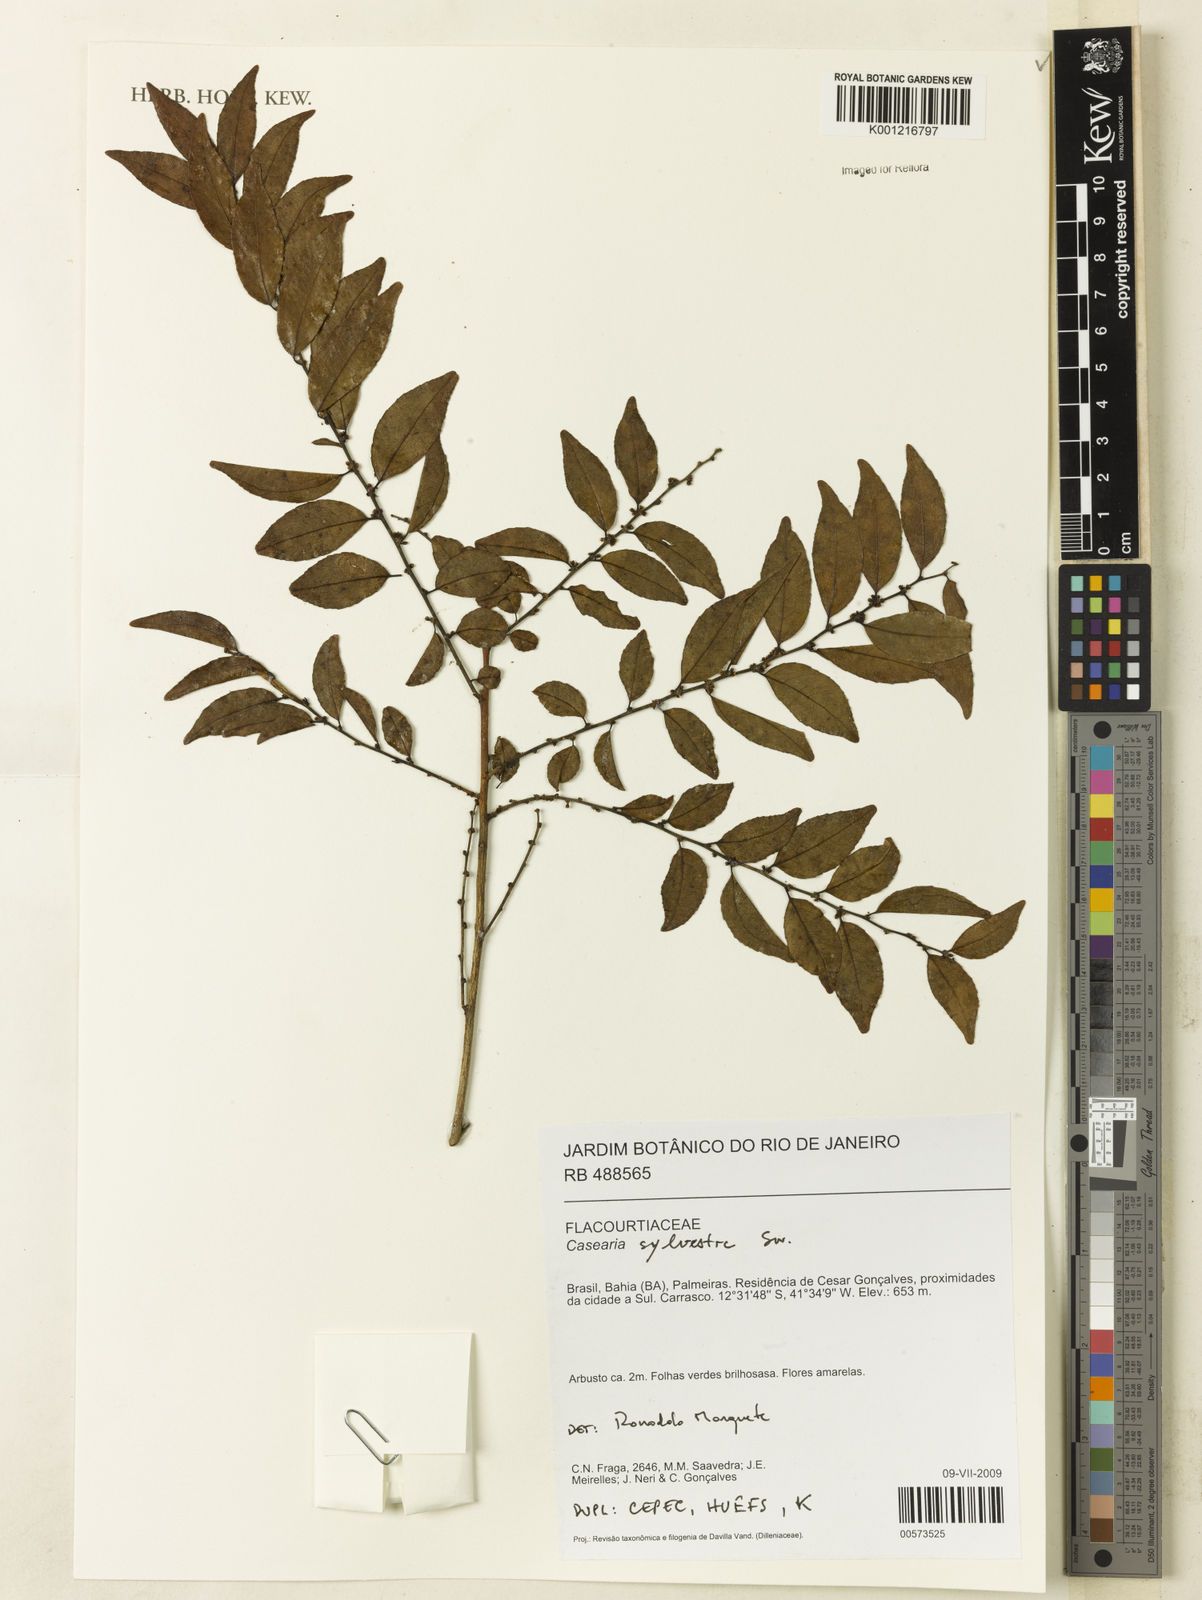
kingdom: Plantae
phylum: Tracheophyta
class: Magnoliopsida
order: Malpighiales
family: Salicaceae
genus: Casearia
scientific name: Casearia sylvestris
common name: Wild sage
